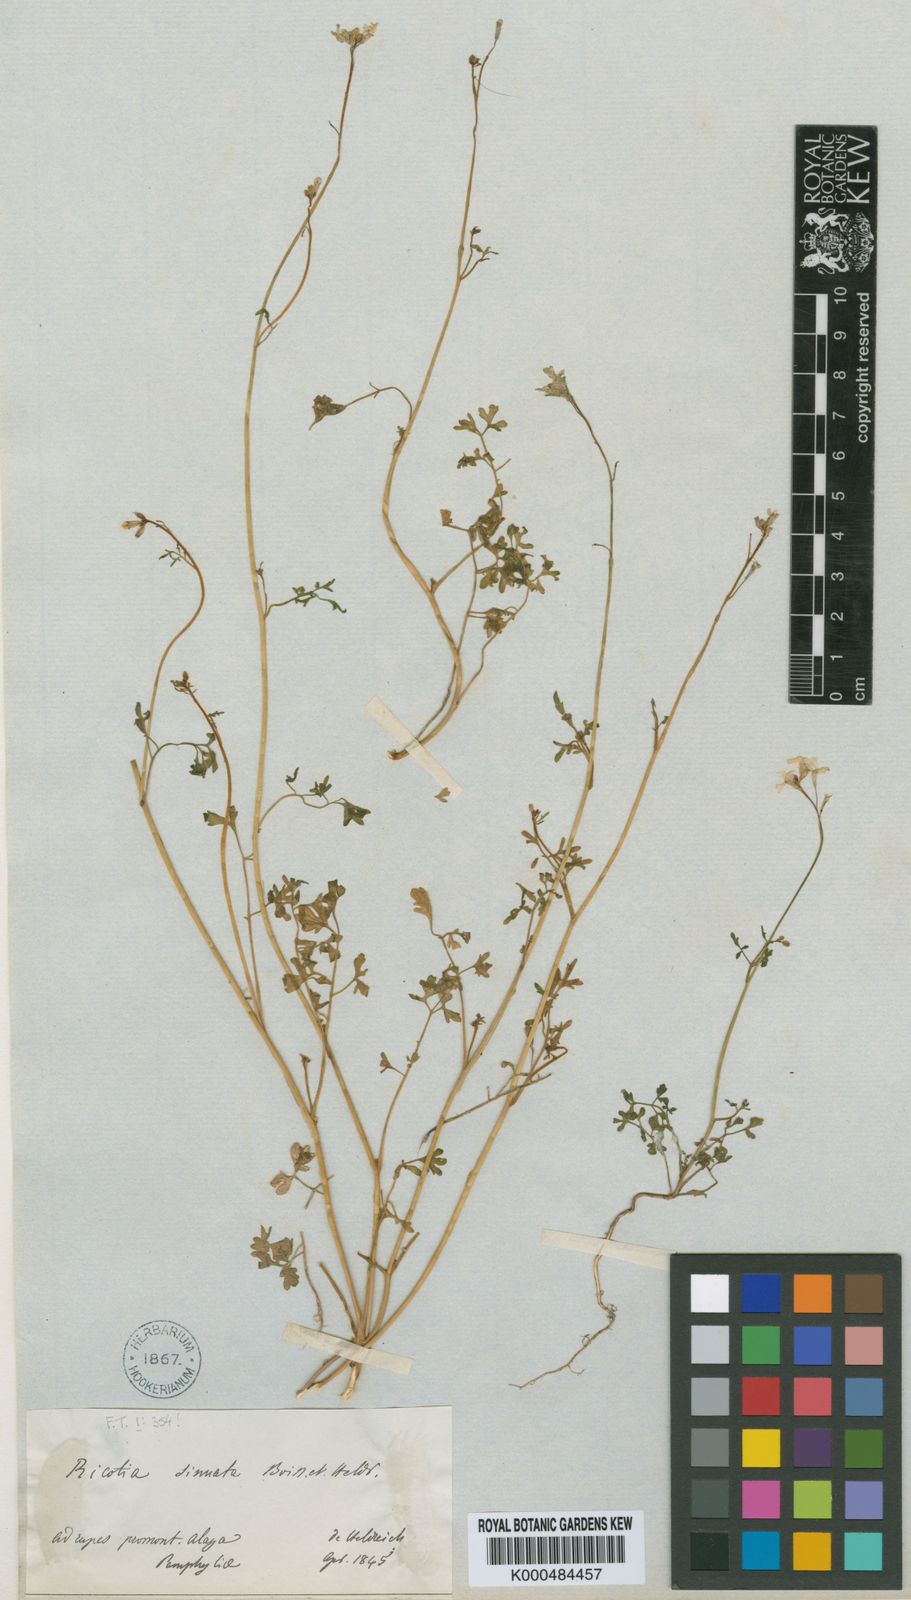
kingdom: Plantae
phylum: Tracheophyta
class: Magnoliopsida
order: Brassicales
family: Brassicaceae
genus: Ricotia
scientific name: Ricotia sinuata
